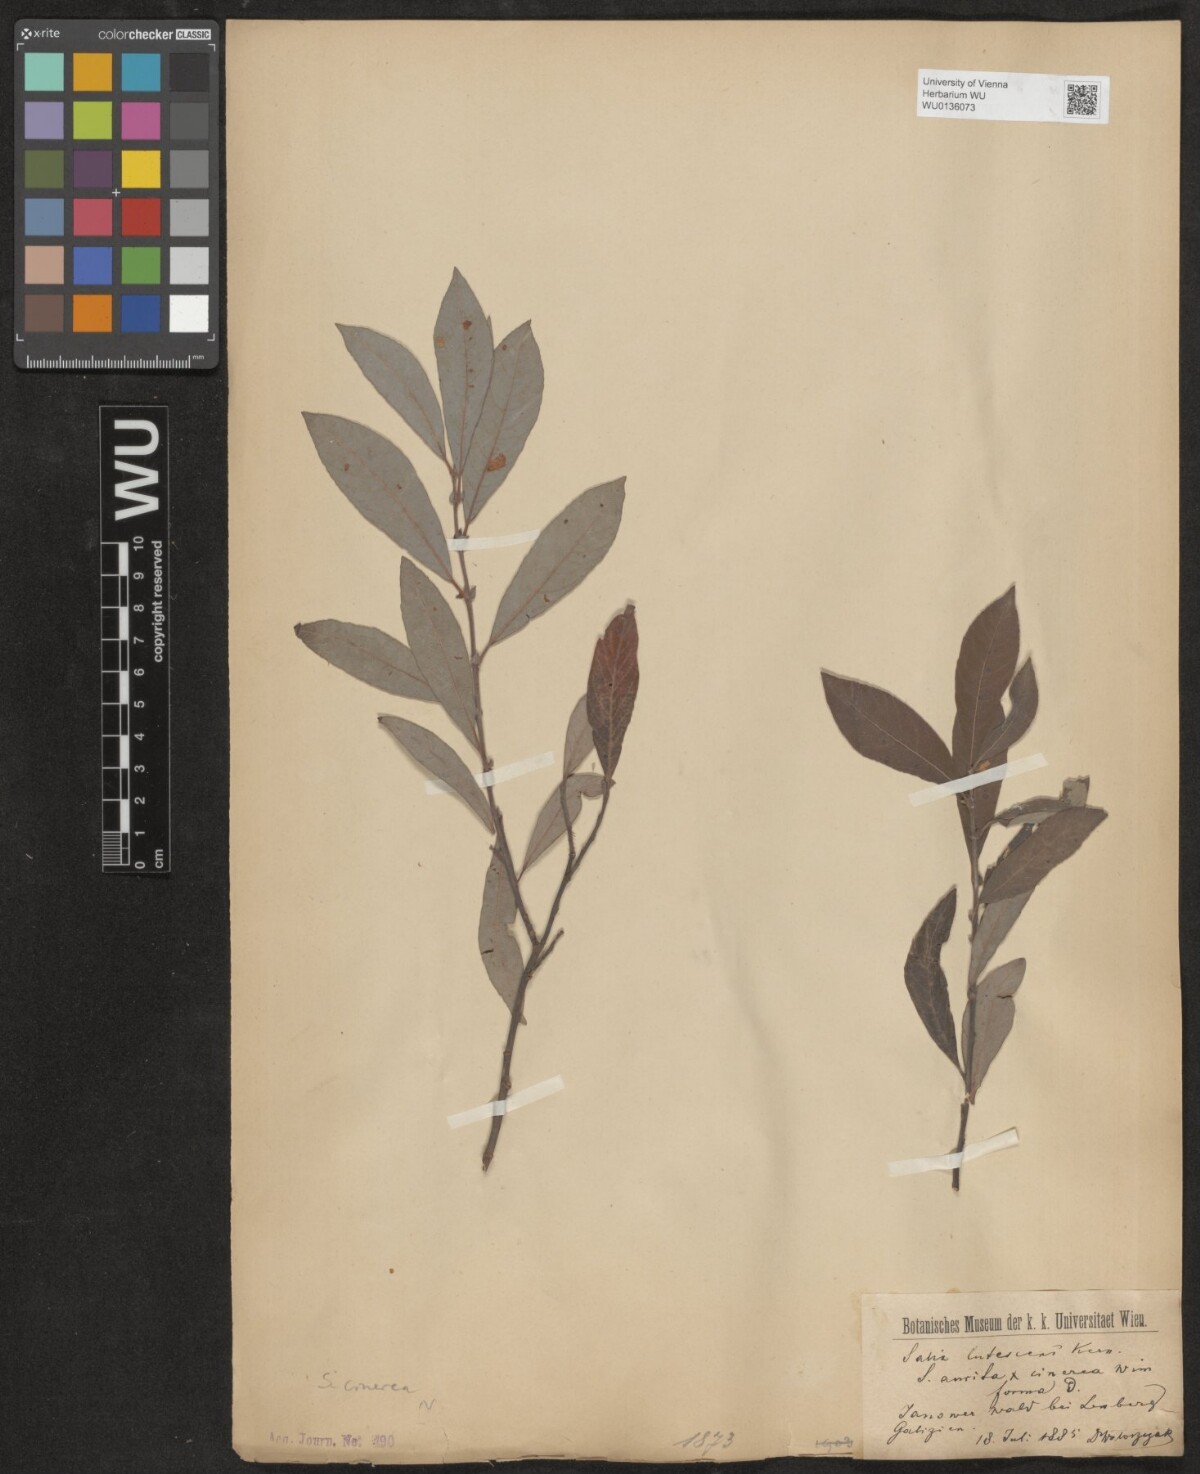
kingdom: Plantae
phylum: Tracheophyta
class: Magnoliopsida
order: Malpighiales
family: Salicaceae
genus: Salix
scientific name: Salix cinerea
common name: Common sallow
